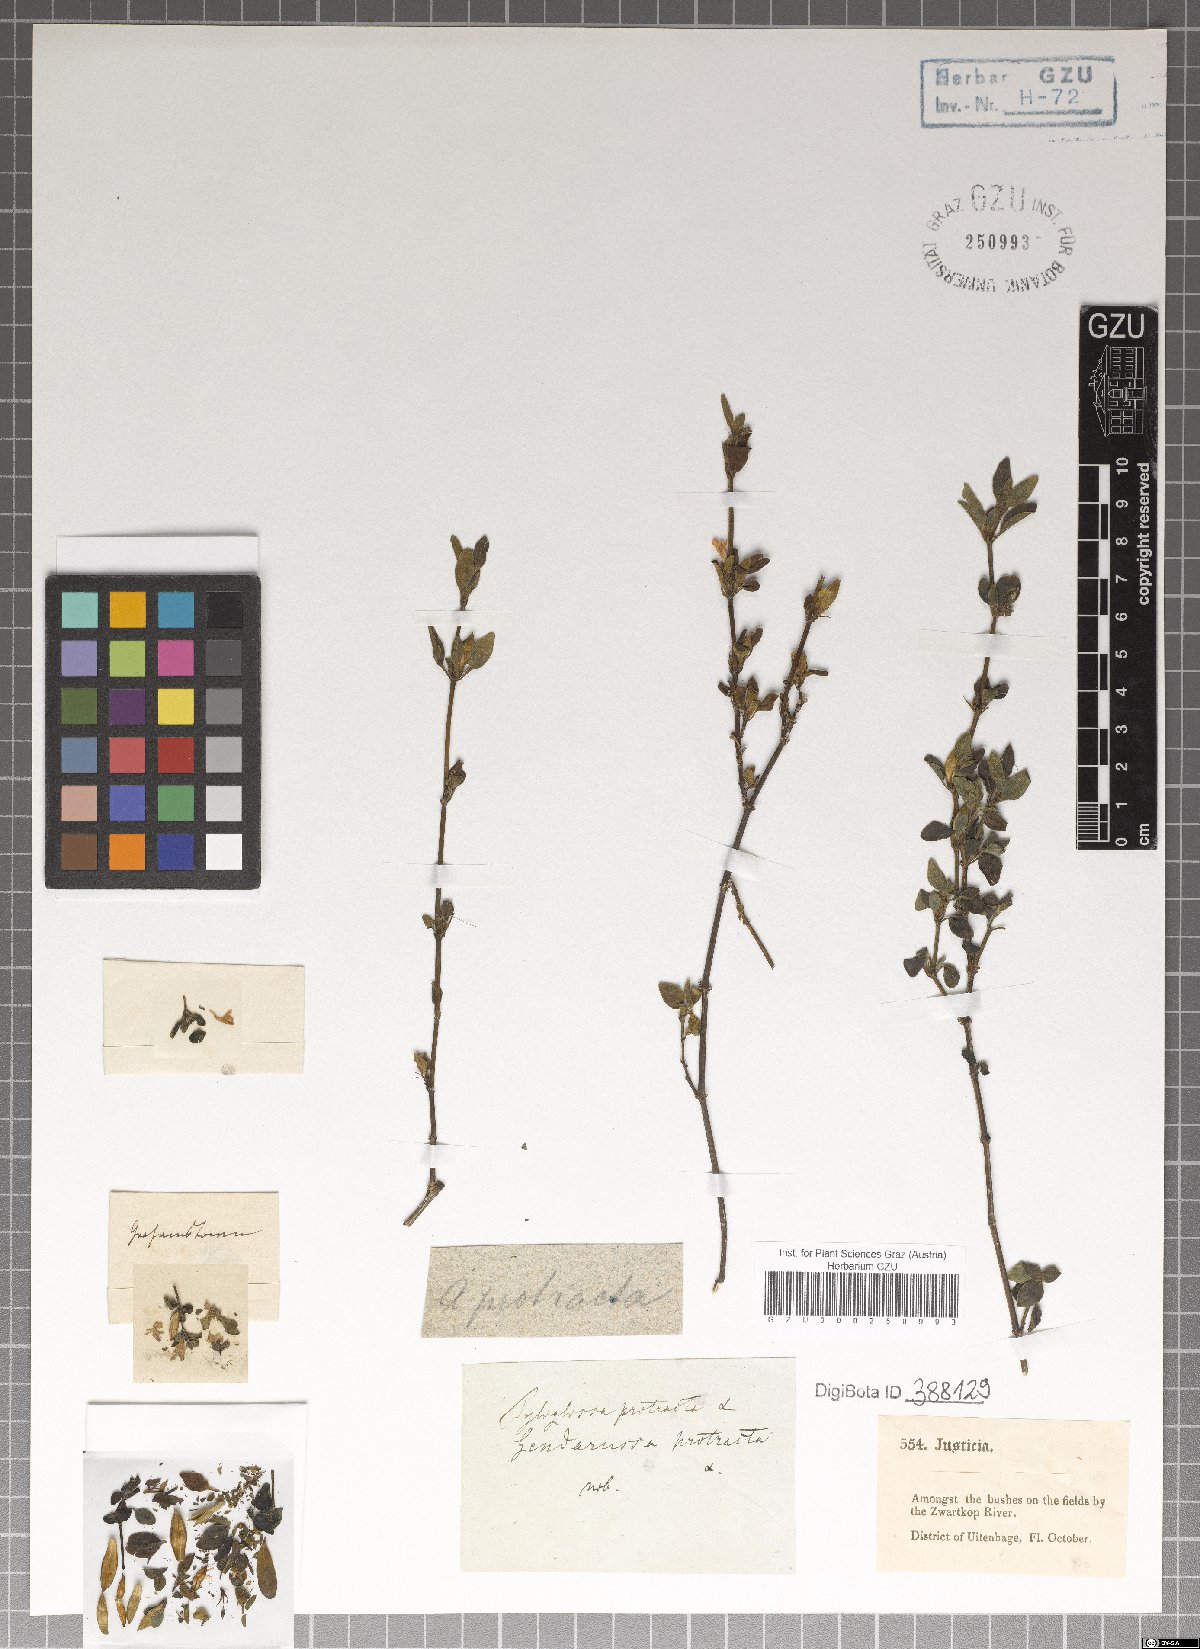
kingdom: Plantae
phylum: Tracheophyta
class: Magnoliopsida
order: Lamiales
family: Acanthaceae
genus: Justicia
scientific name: Justicia protracta
